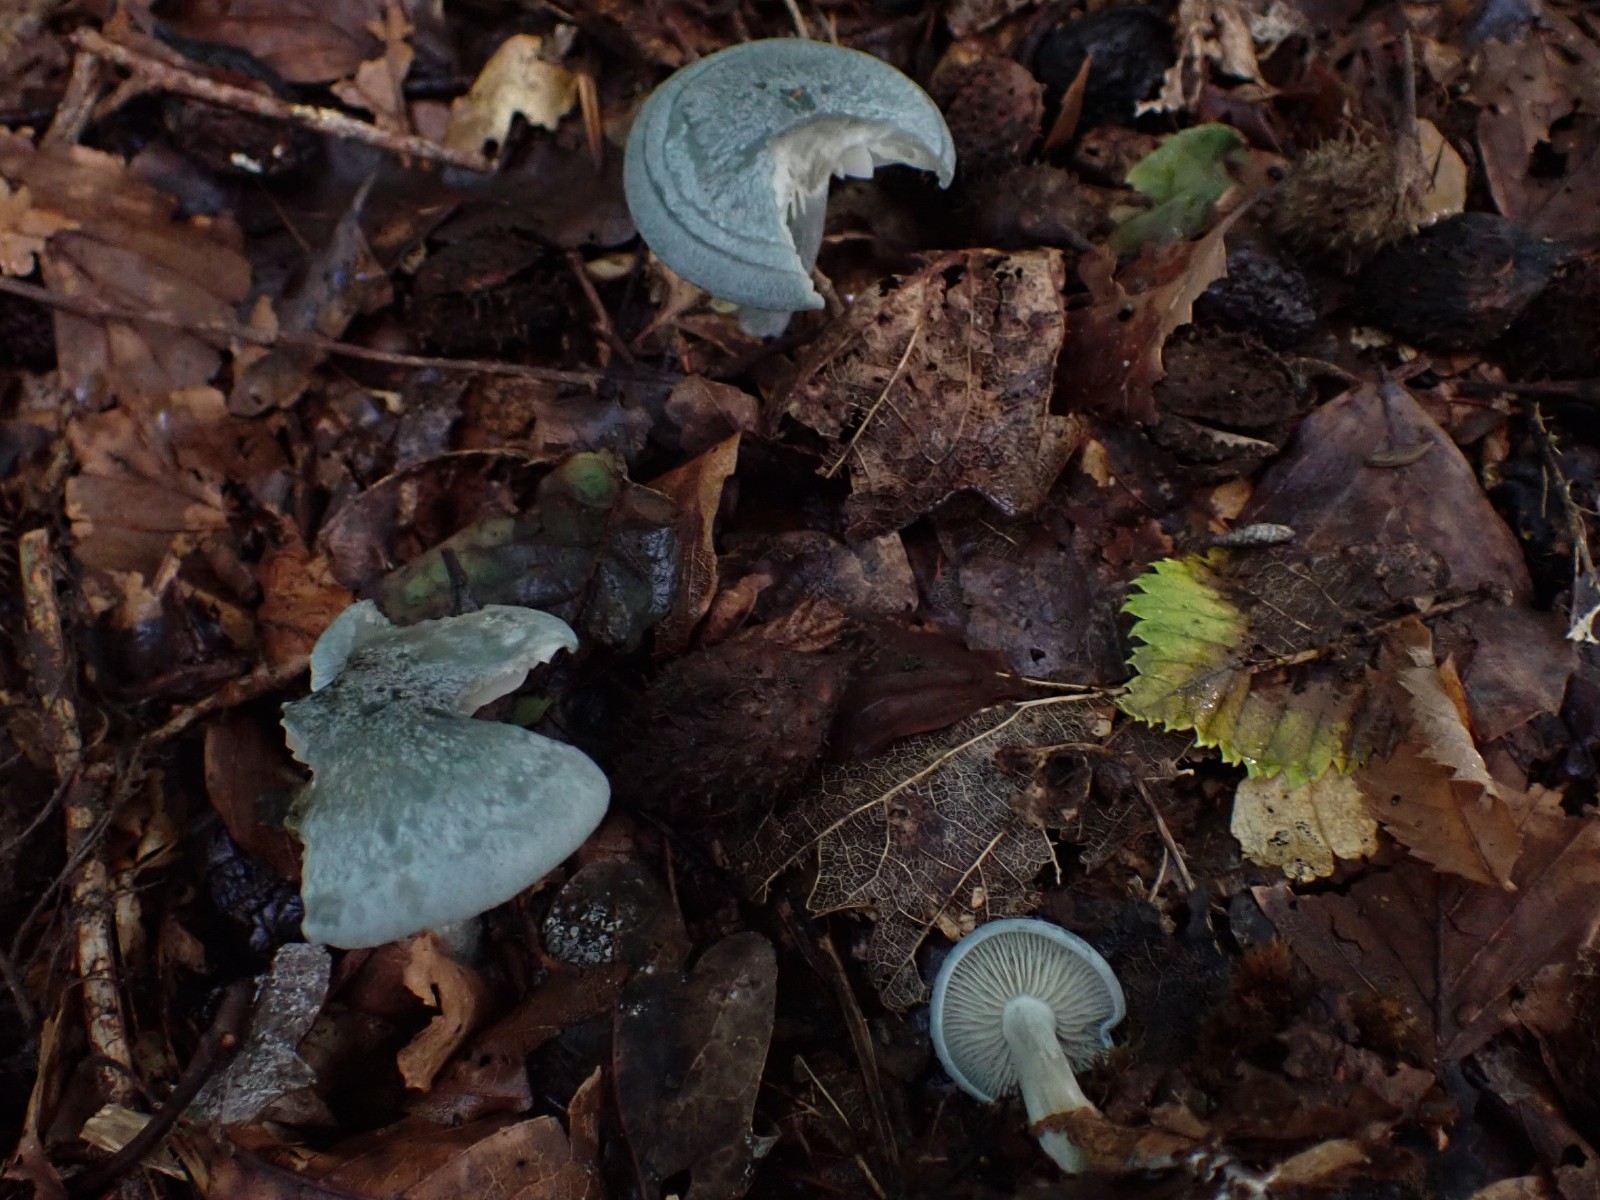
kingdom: Fungi
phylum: Basidiomycota
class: Agaricomycetes
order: Agaricales
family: Tricholomataceae
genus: Clitocybe
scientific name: Clitocybe odora
